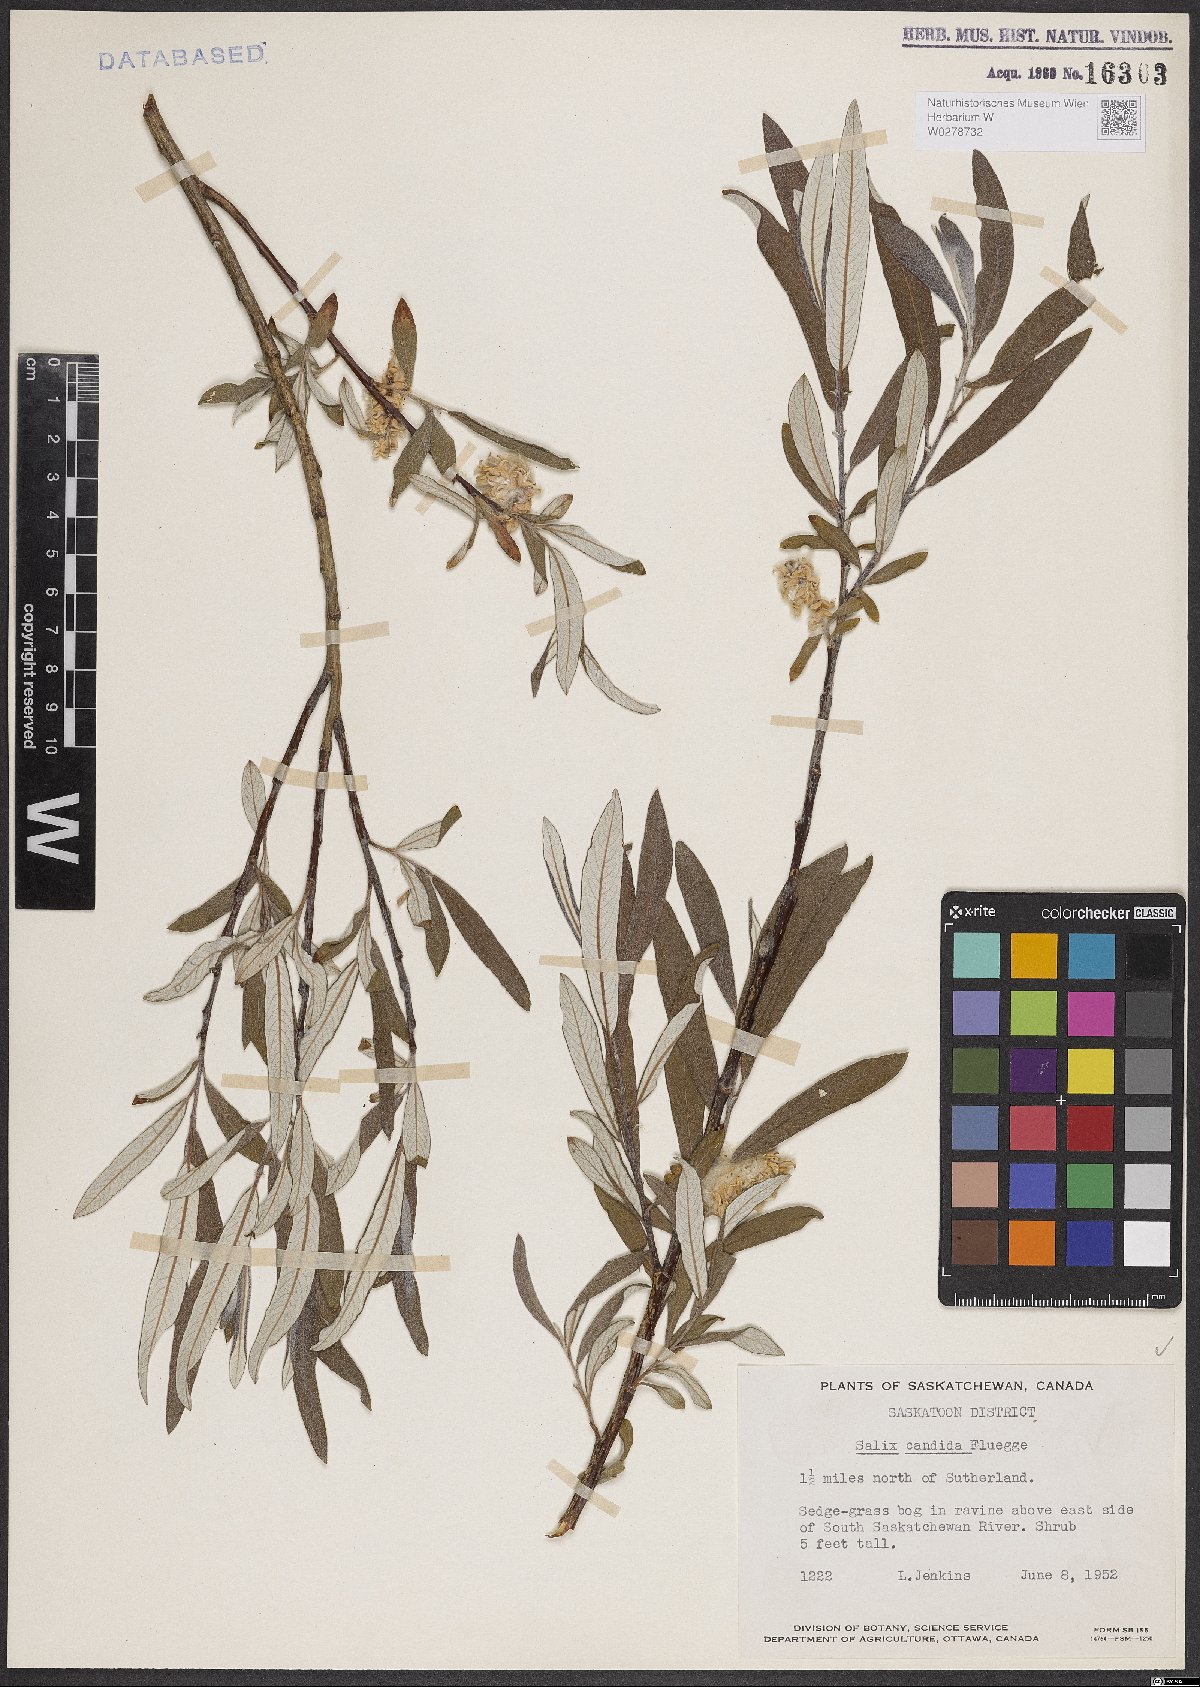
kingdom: Plantae
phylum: Tracheophyta
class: Magnoliopsida
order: Malpighiales
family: Salicaceae
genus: Salix
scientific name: Salix candida
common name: Hoary willow
